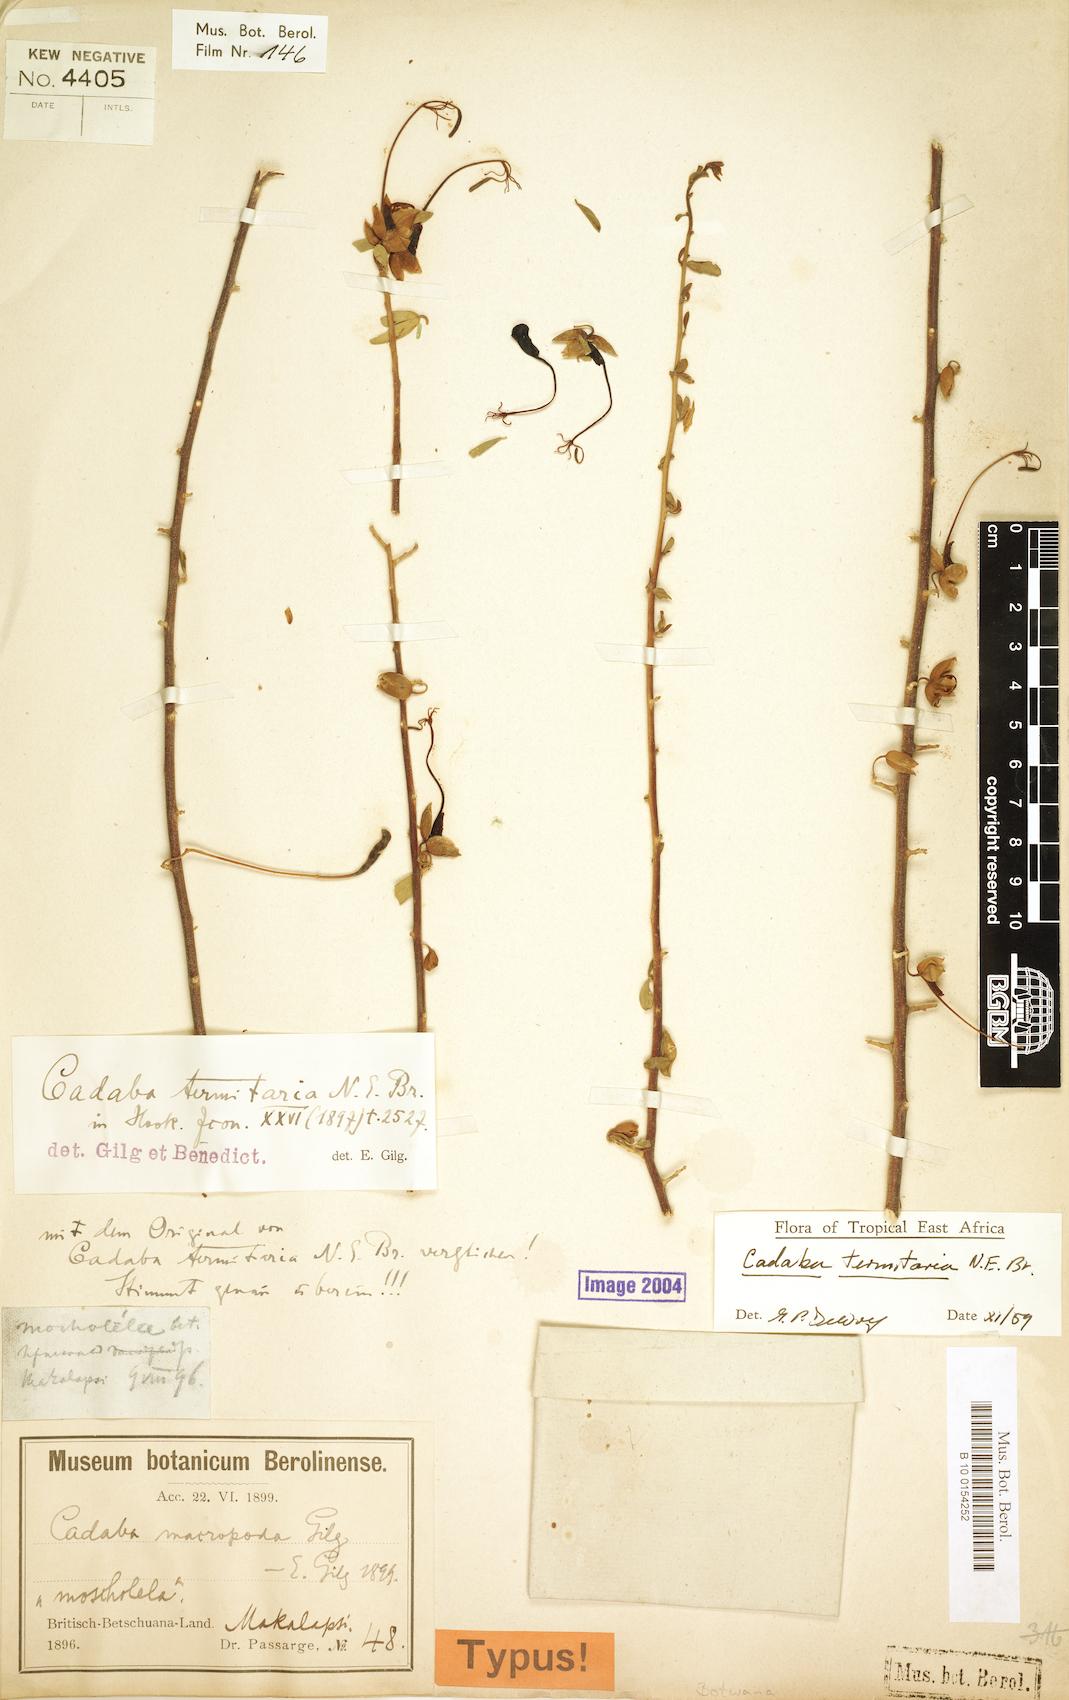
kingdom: Plantae
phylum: Tracheophyta
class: Magnoliopsida
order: Brassicales
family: Capparaceae
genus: Cadaba
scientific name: Cadaba termitaria
